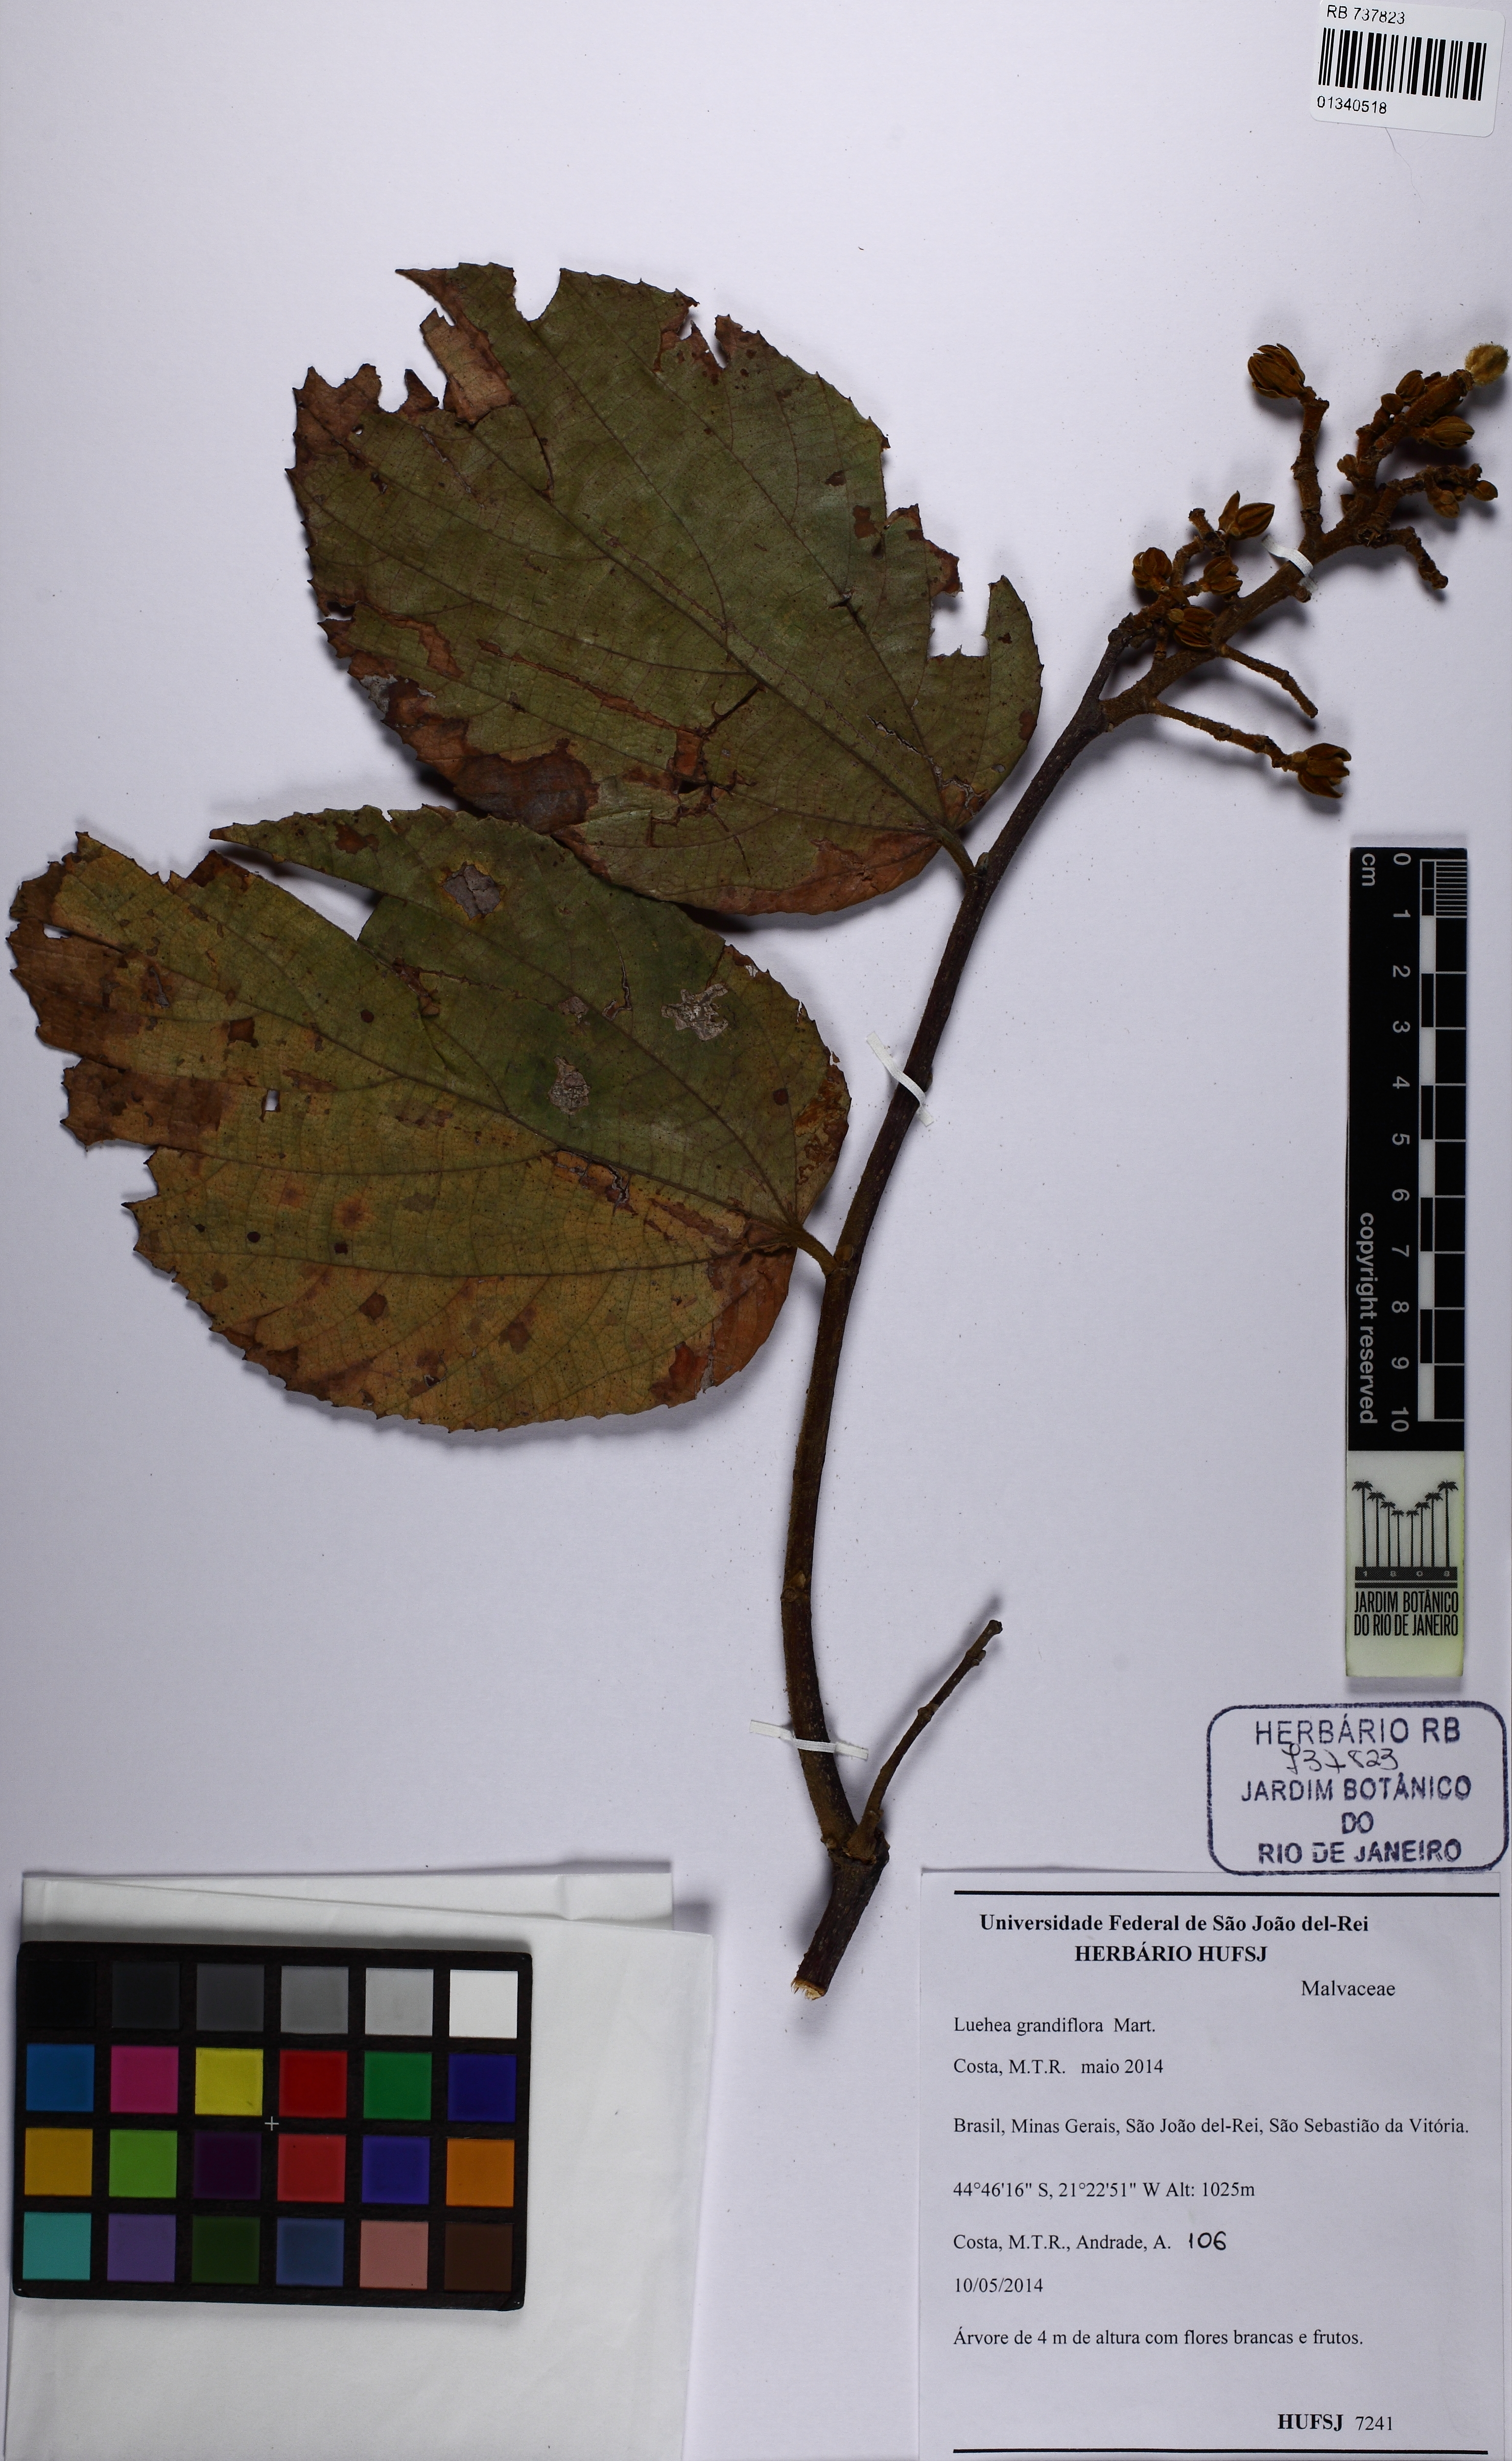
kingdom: Plantae
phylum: Tracheophyta
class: Magnoliopsida
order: Malvales
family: Malvaceae
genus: Luehea
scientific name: Luehea grandiflora
